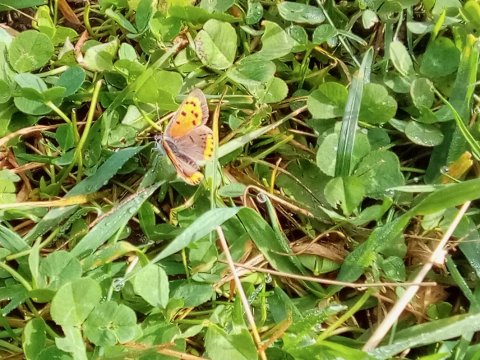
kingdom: Animalia
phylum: Arthropoda
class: Insecta
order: Lepidoptera
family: Lycaenidae
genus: Lycaena
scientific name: Lycaena phlaeas
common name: American Copper
